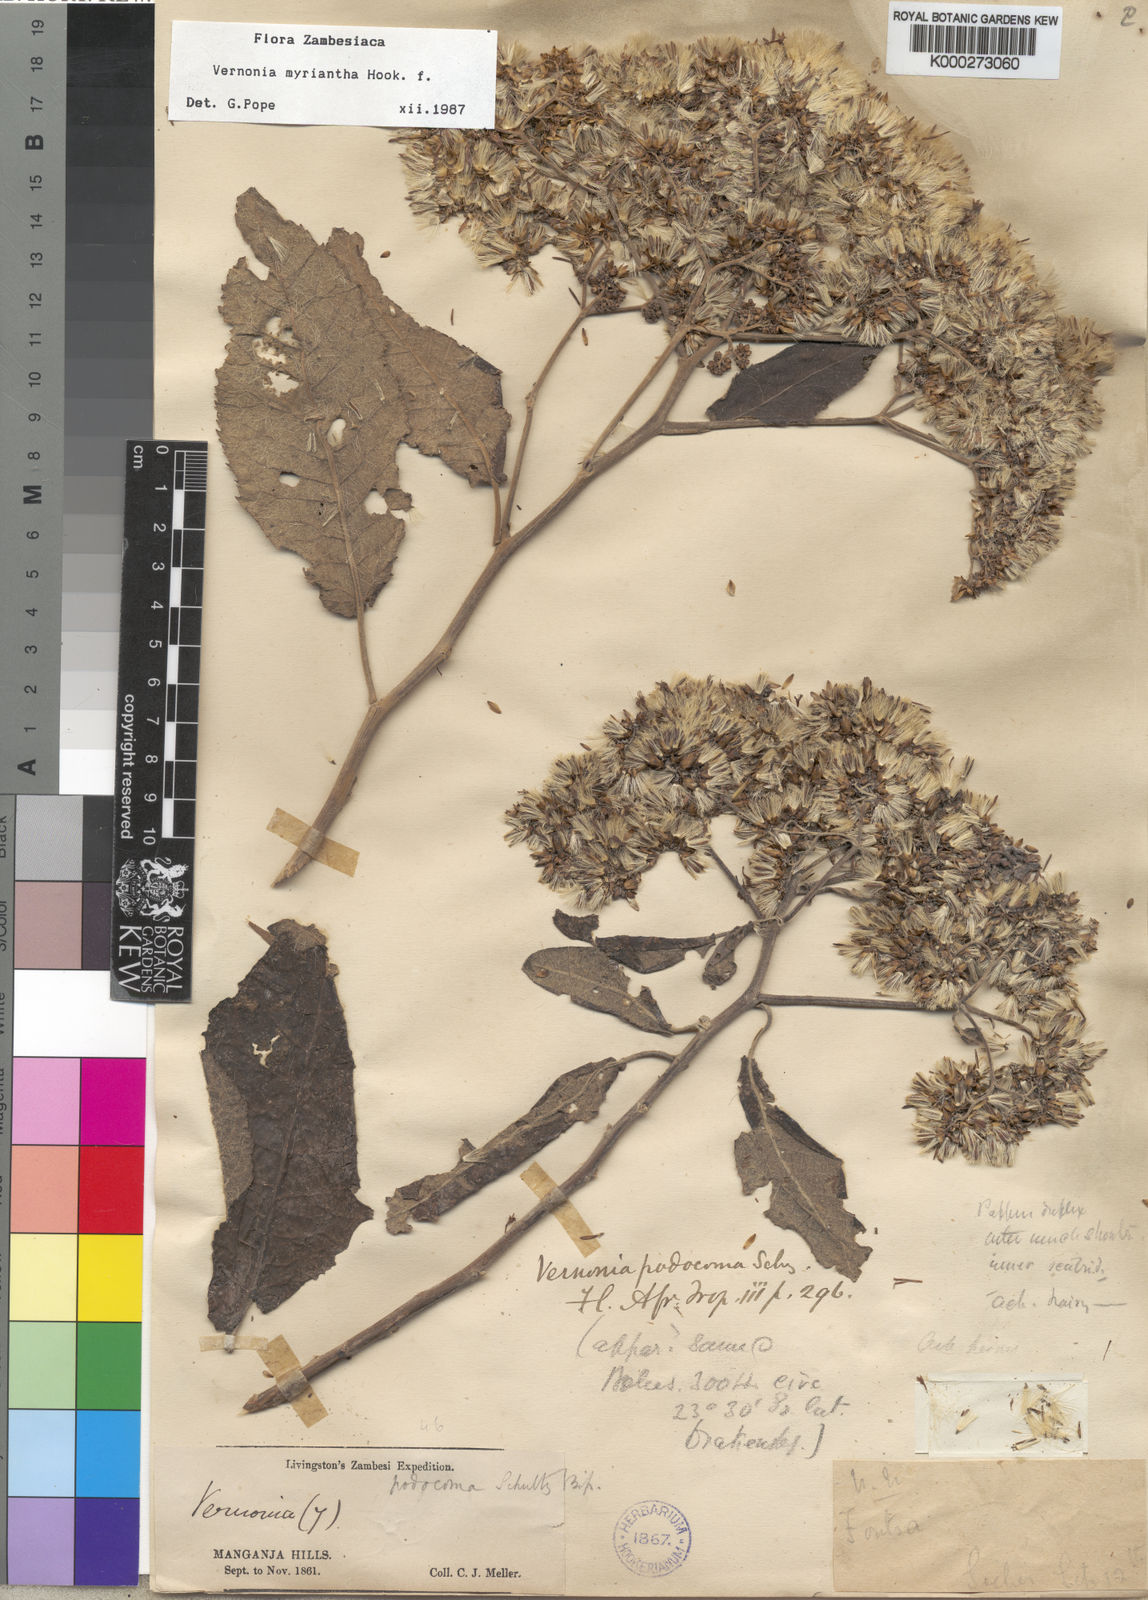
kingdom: Plantae
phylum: Tracheophyta
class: Magnoliopsida
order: Asterales
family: Asteraceae
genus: Gymnanthemum
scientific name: Gymnanthemum myrianthum
